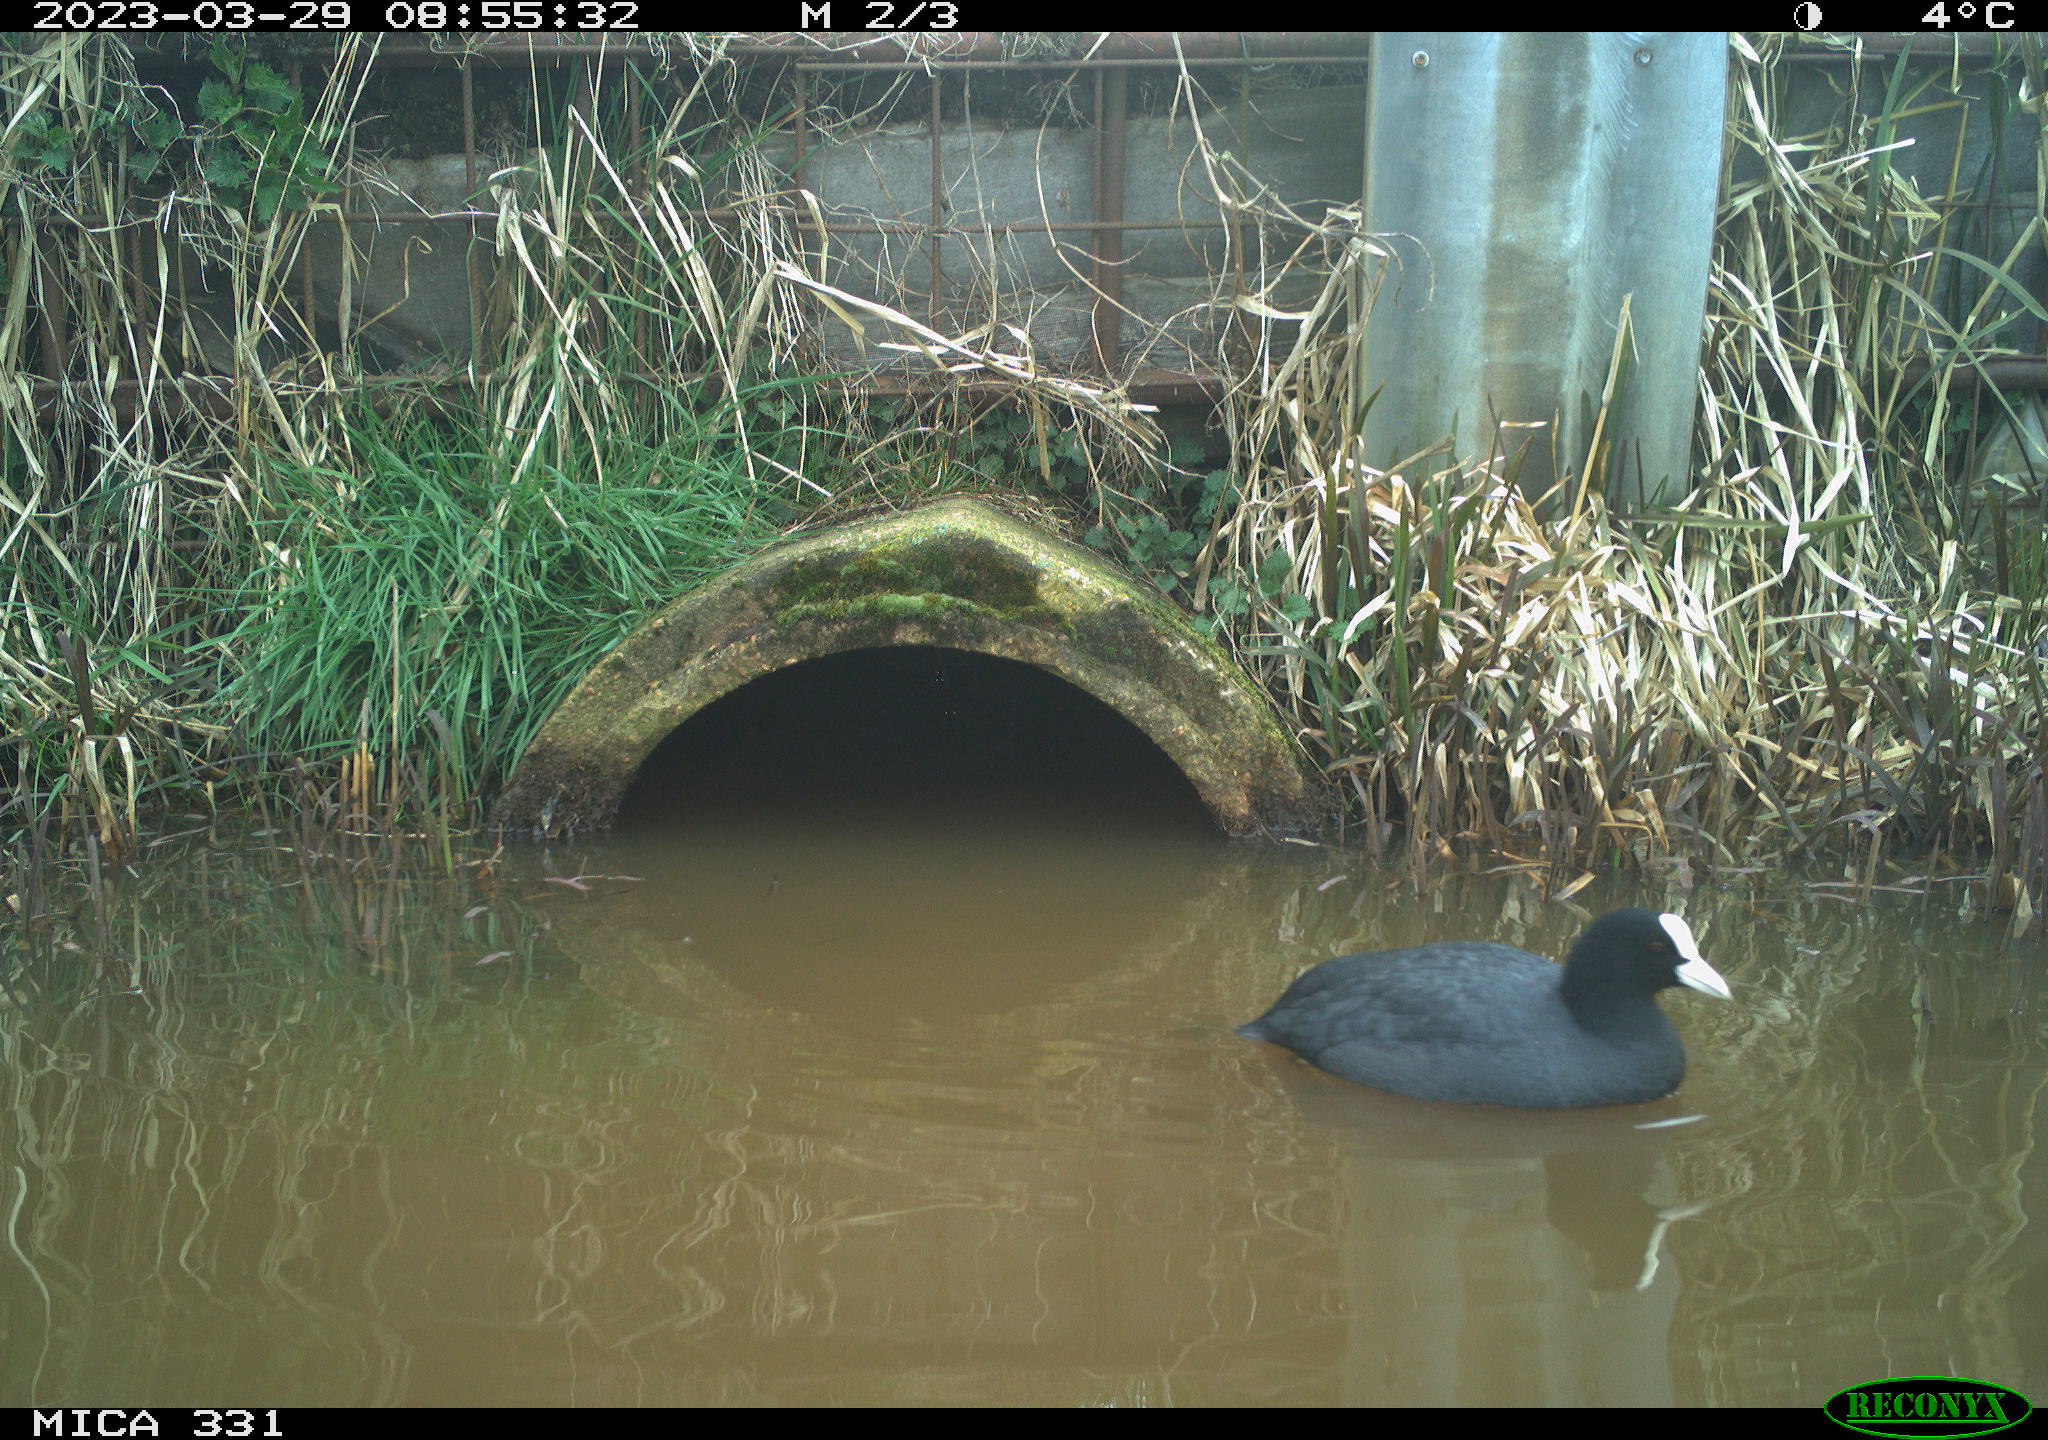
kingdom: Animalia
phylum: Chordata
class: Aves
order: Gruiformes
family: Rallidae
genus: Fulica
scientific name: Fulica atra
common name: Eurasian coot
